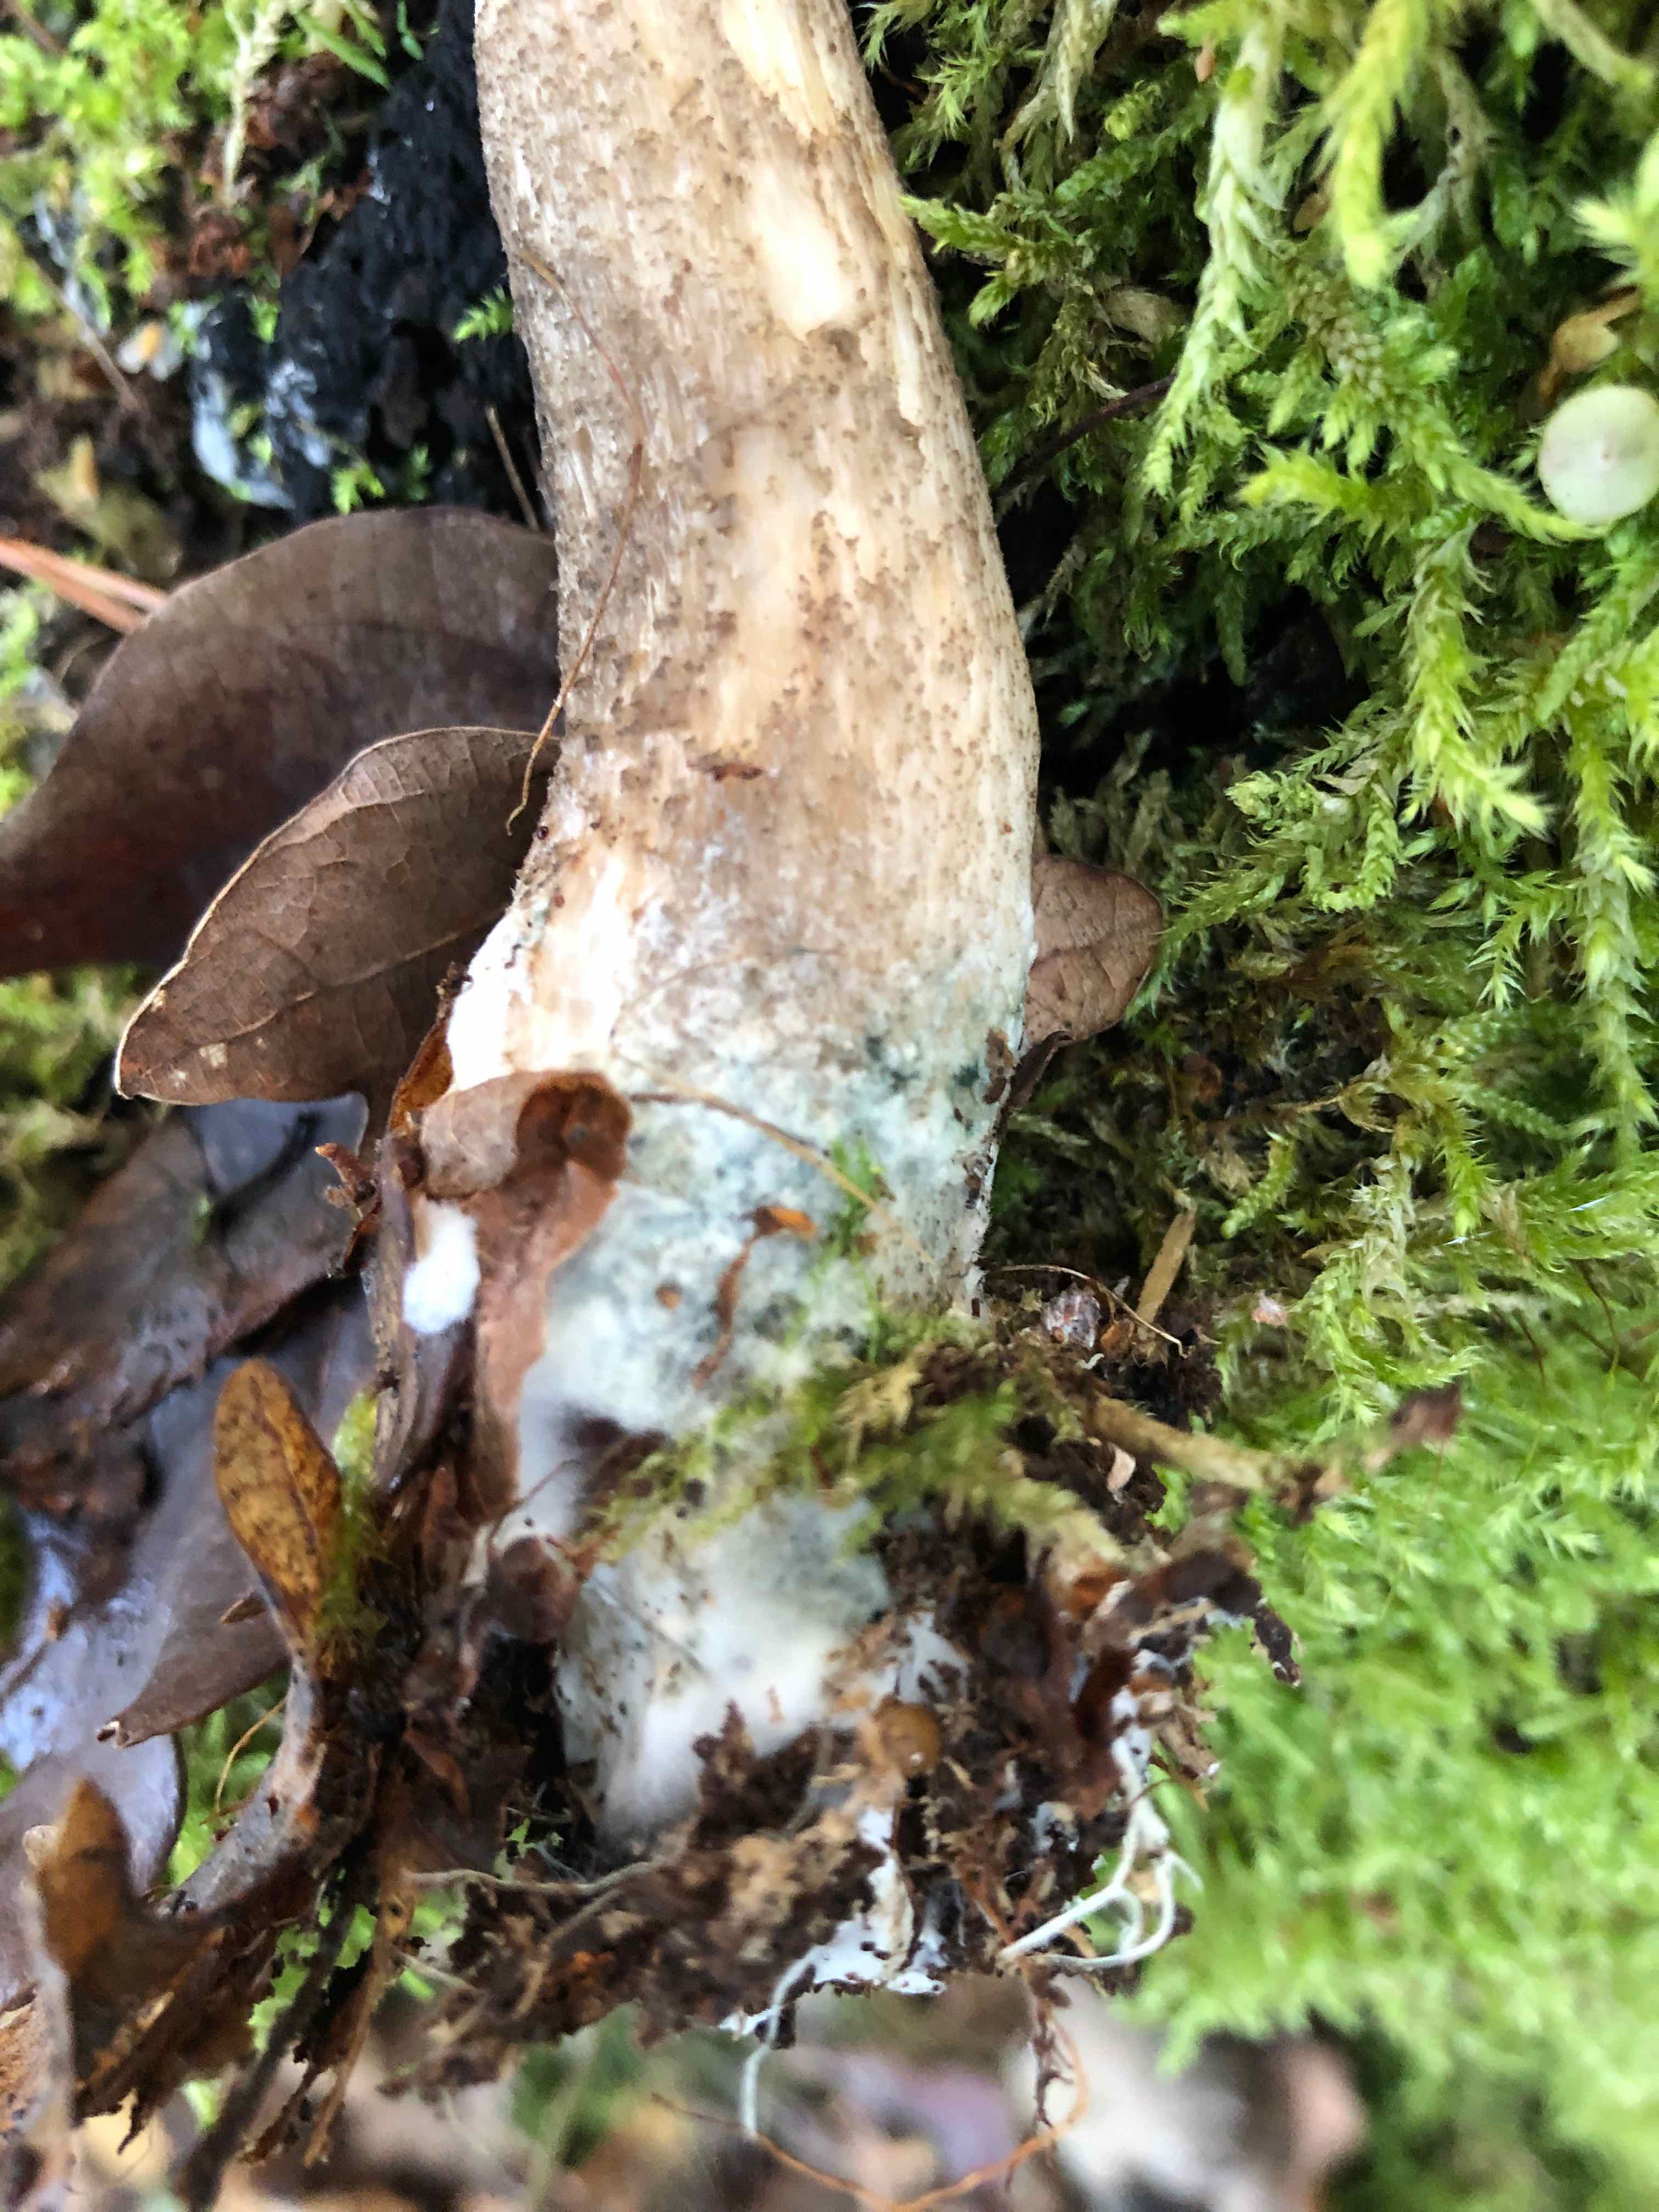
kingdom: Fungi
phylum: Basidiomycota
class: Agaricomycetes
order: Boletales
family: Boletaceae
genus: Leccinum
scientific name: Leccinum cyaneobasileucum
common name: almindelig skælrørhat
